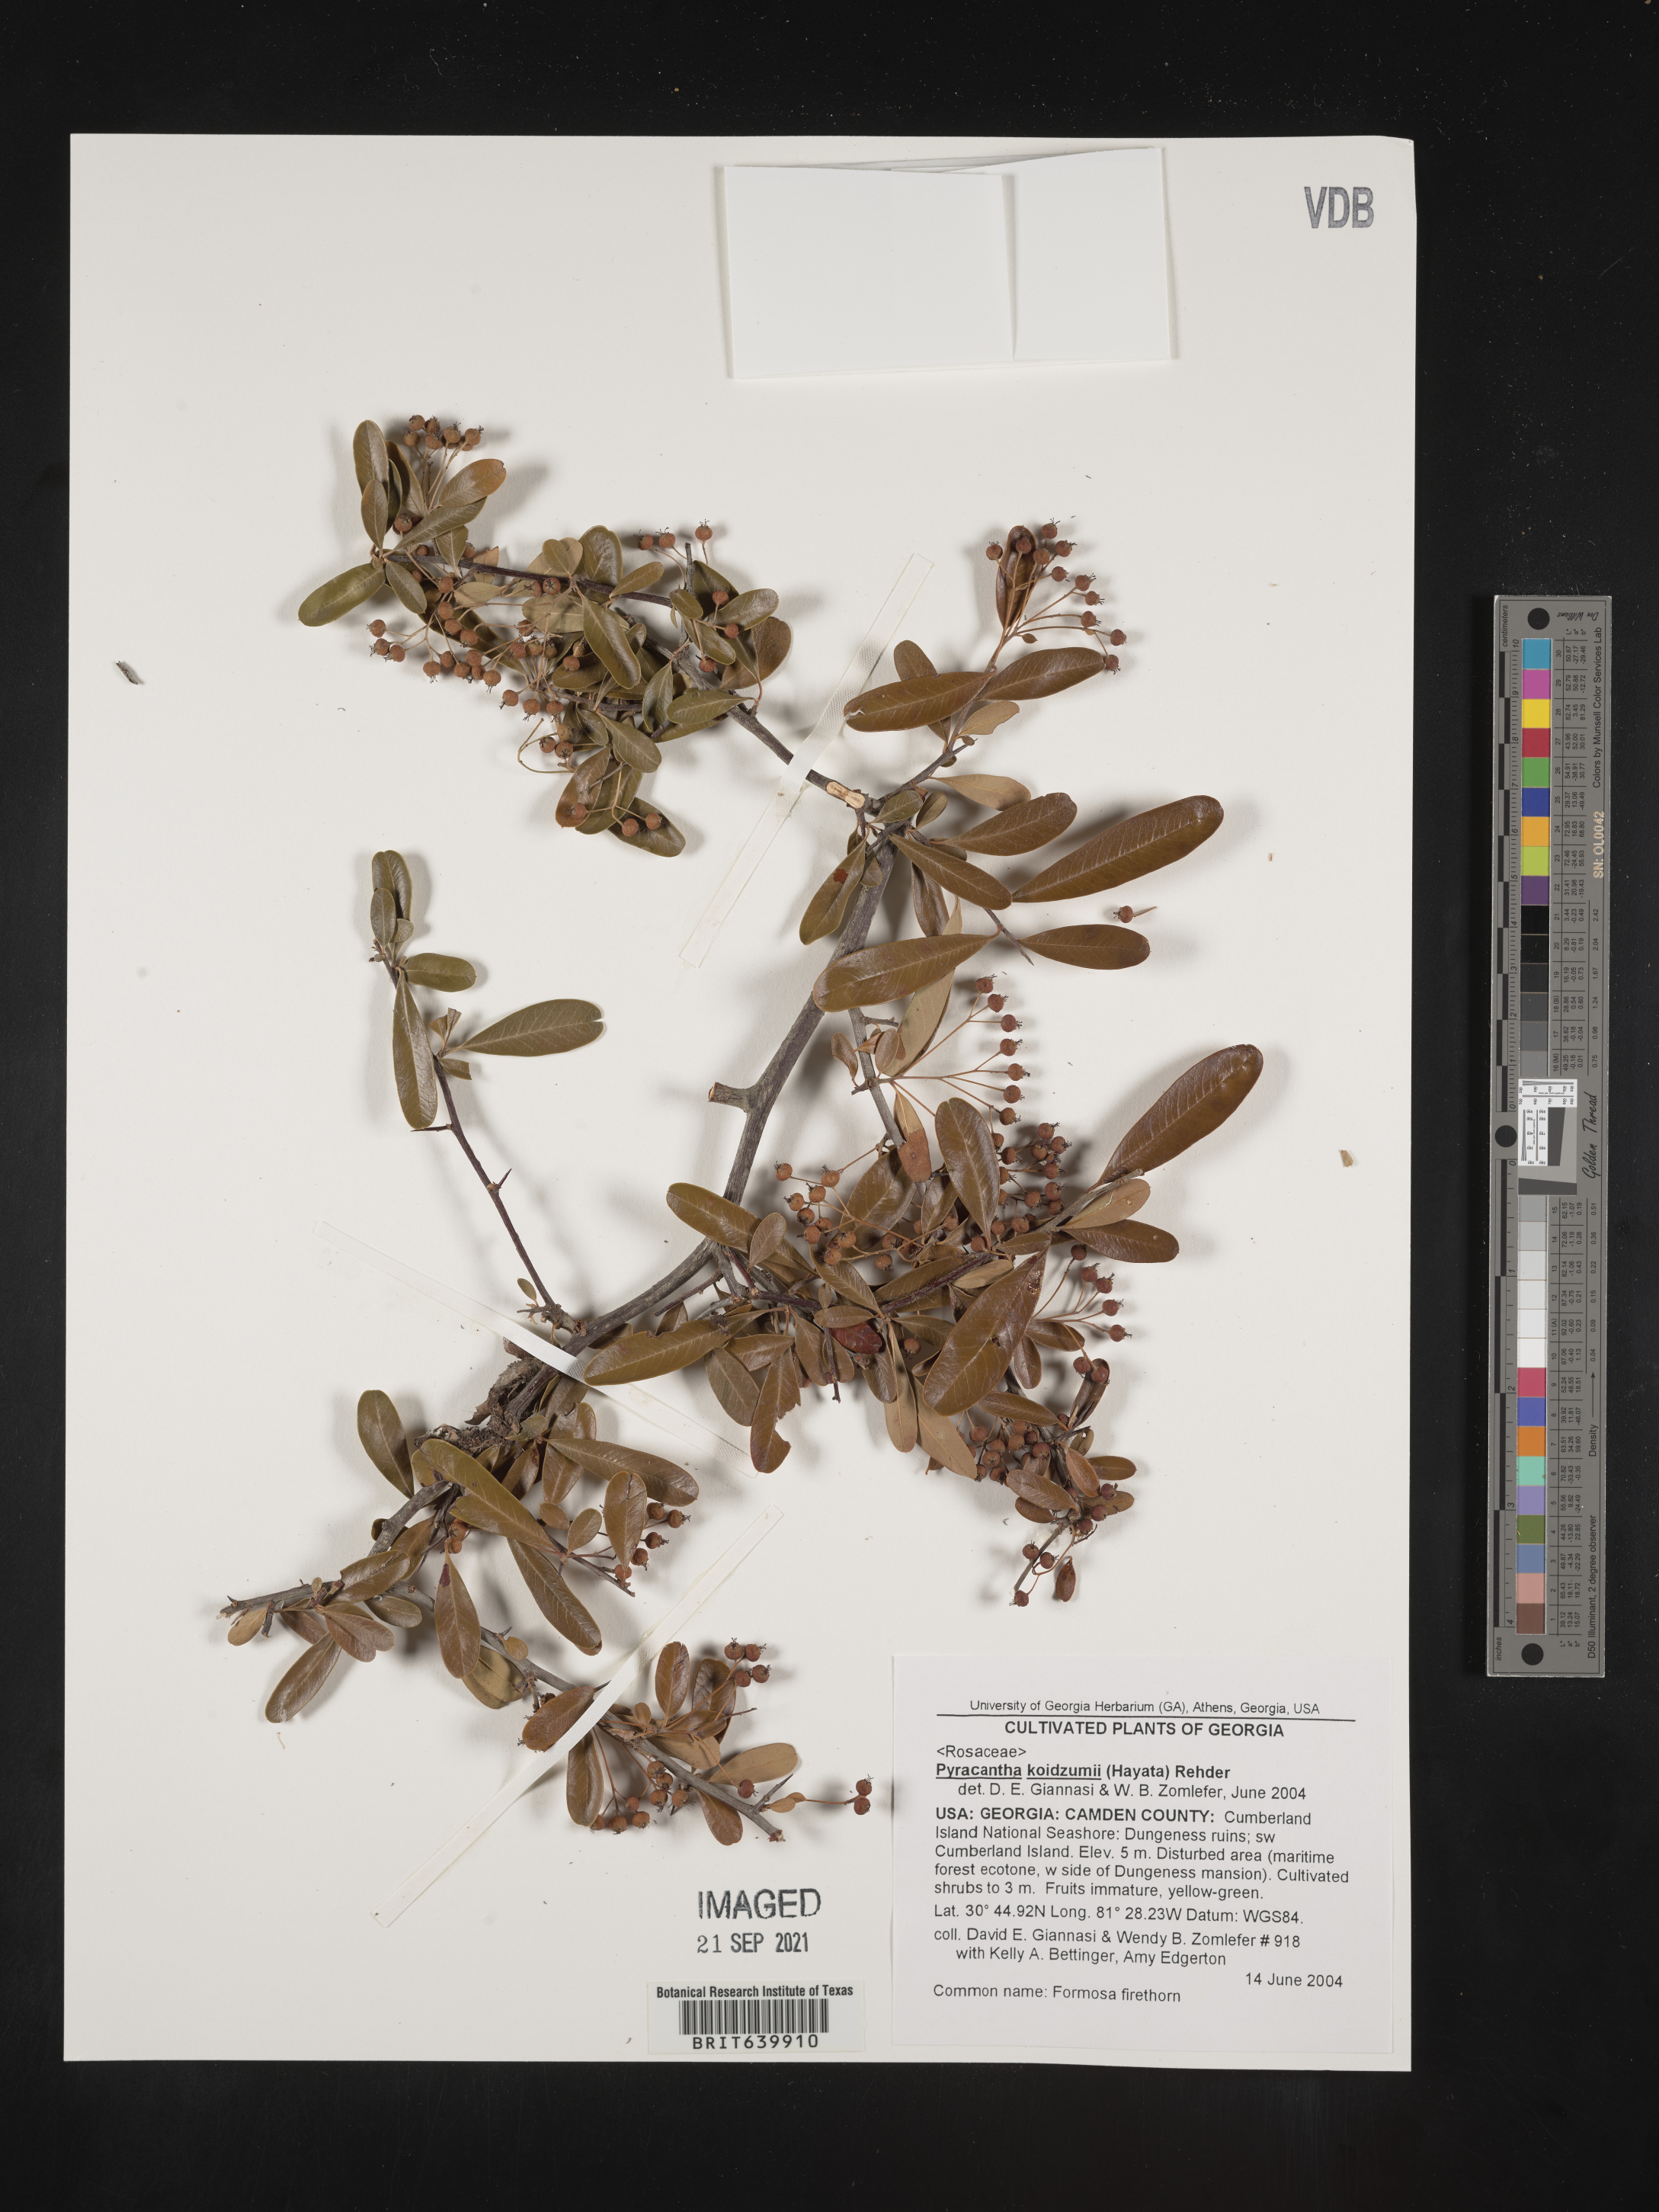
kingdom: Plantae
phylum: Tracheophyta
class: Magnoliopsida
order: Rosales
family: Rosaceae
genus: Pyracantha
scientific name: Pyracantha koidzumii
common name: Formosa firethorn
